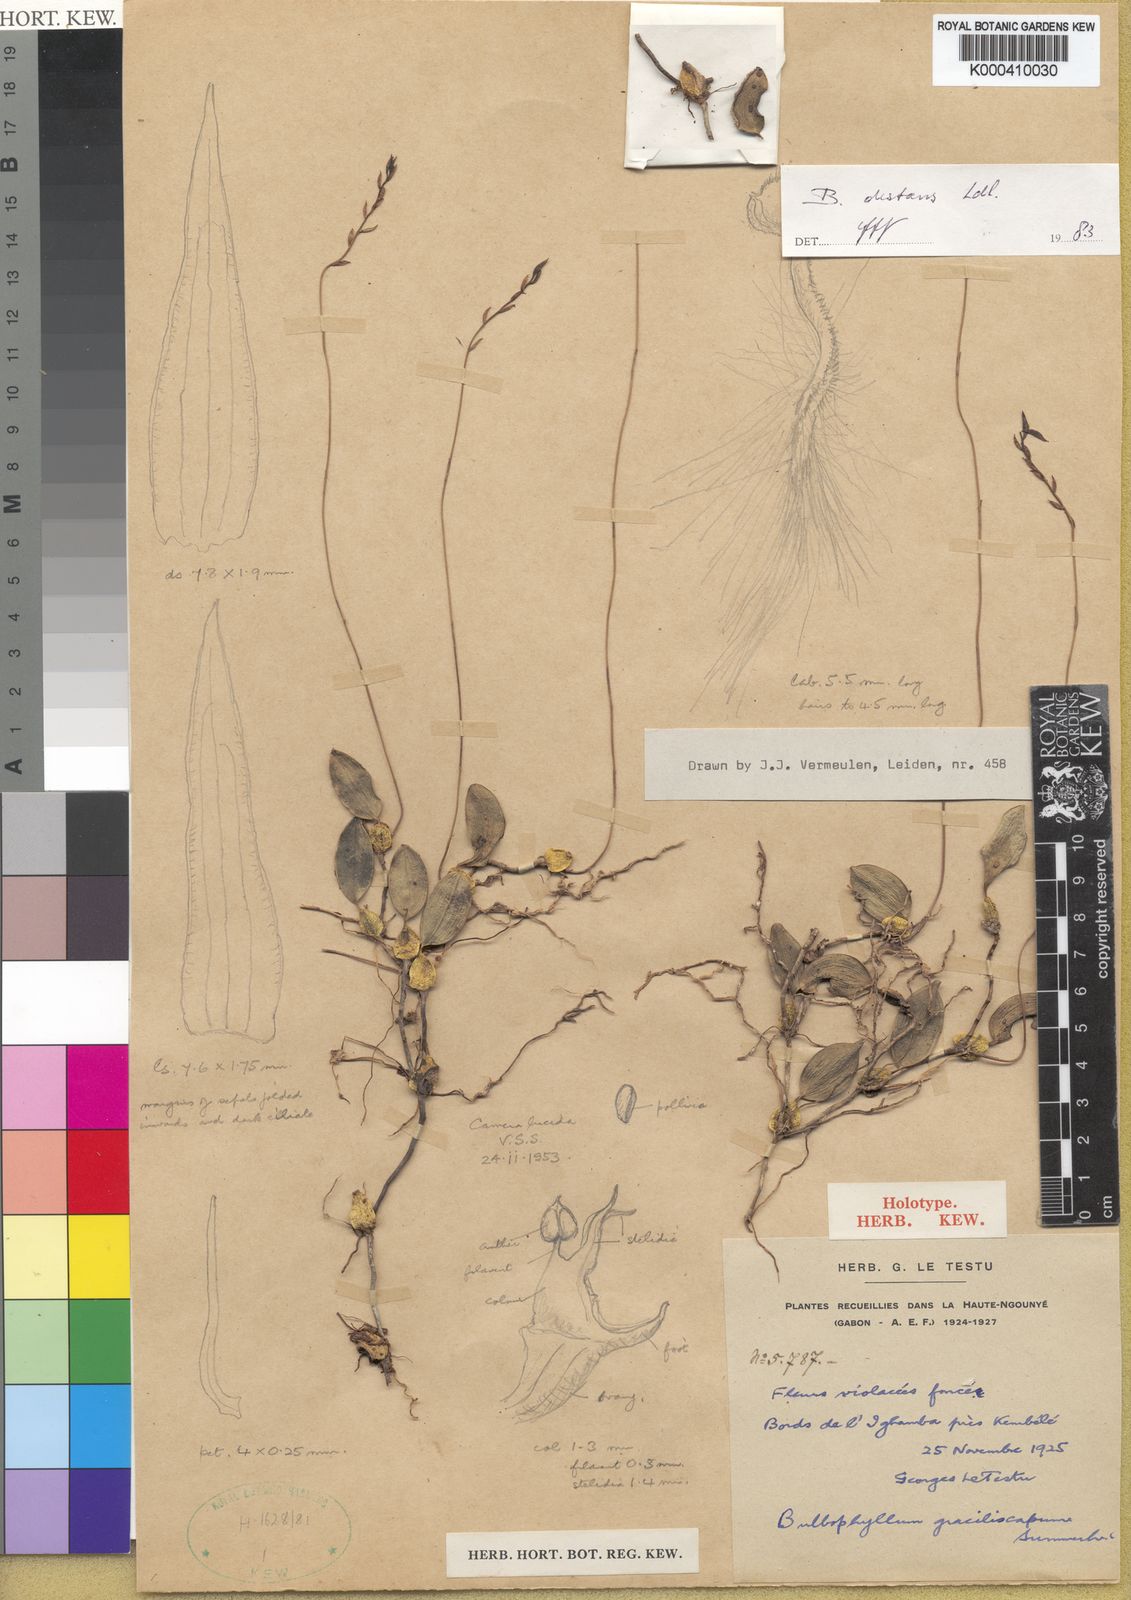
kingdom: Plantae
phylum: Tracheophyta
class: Liliopsida
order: Asparagales
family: Orchidaceae
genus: Bulbophyllum
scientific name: Bulbophyllum saltatorium
